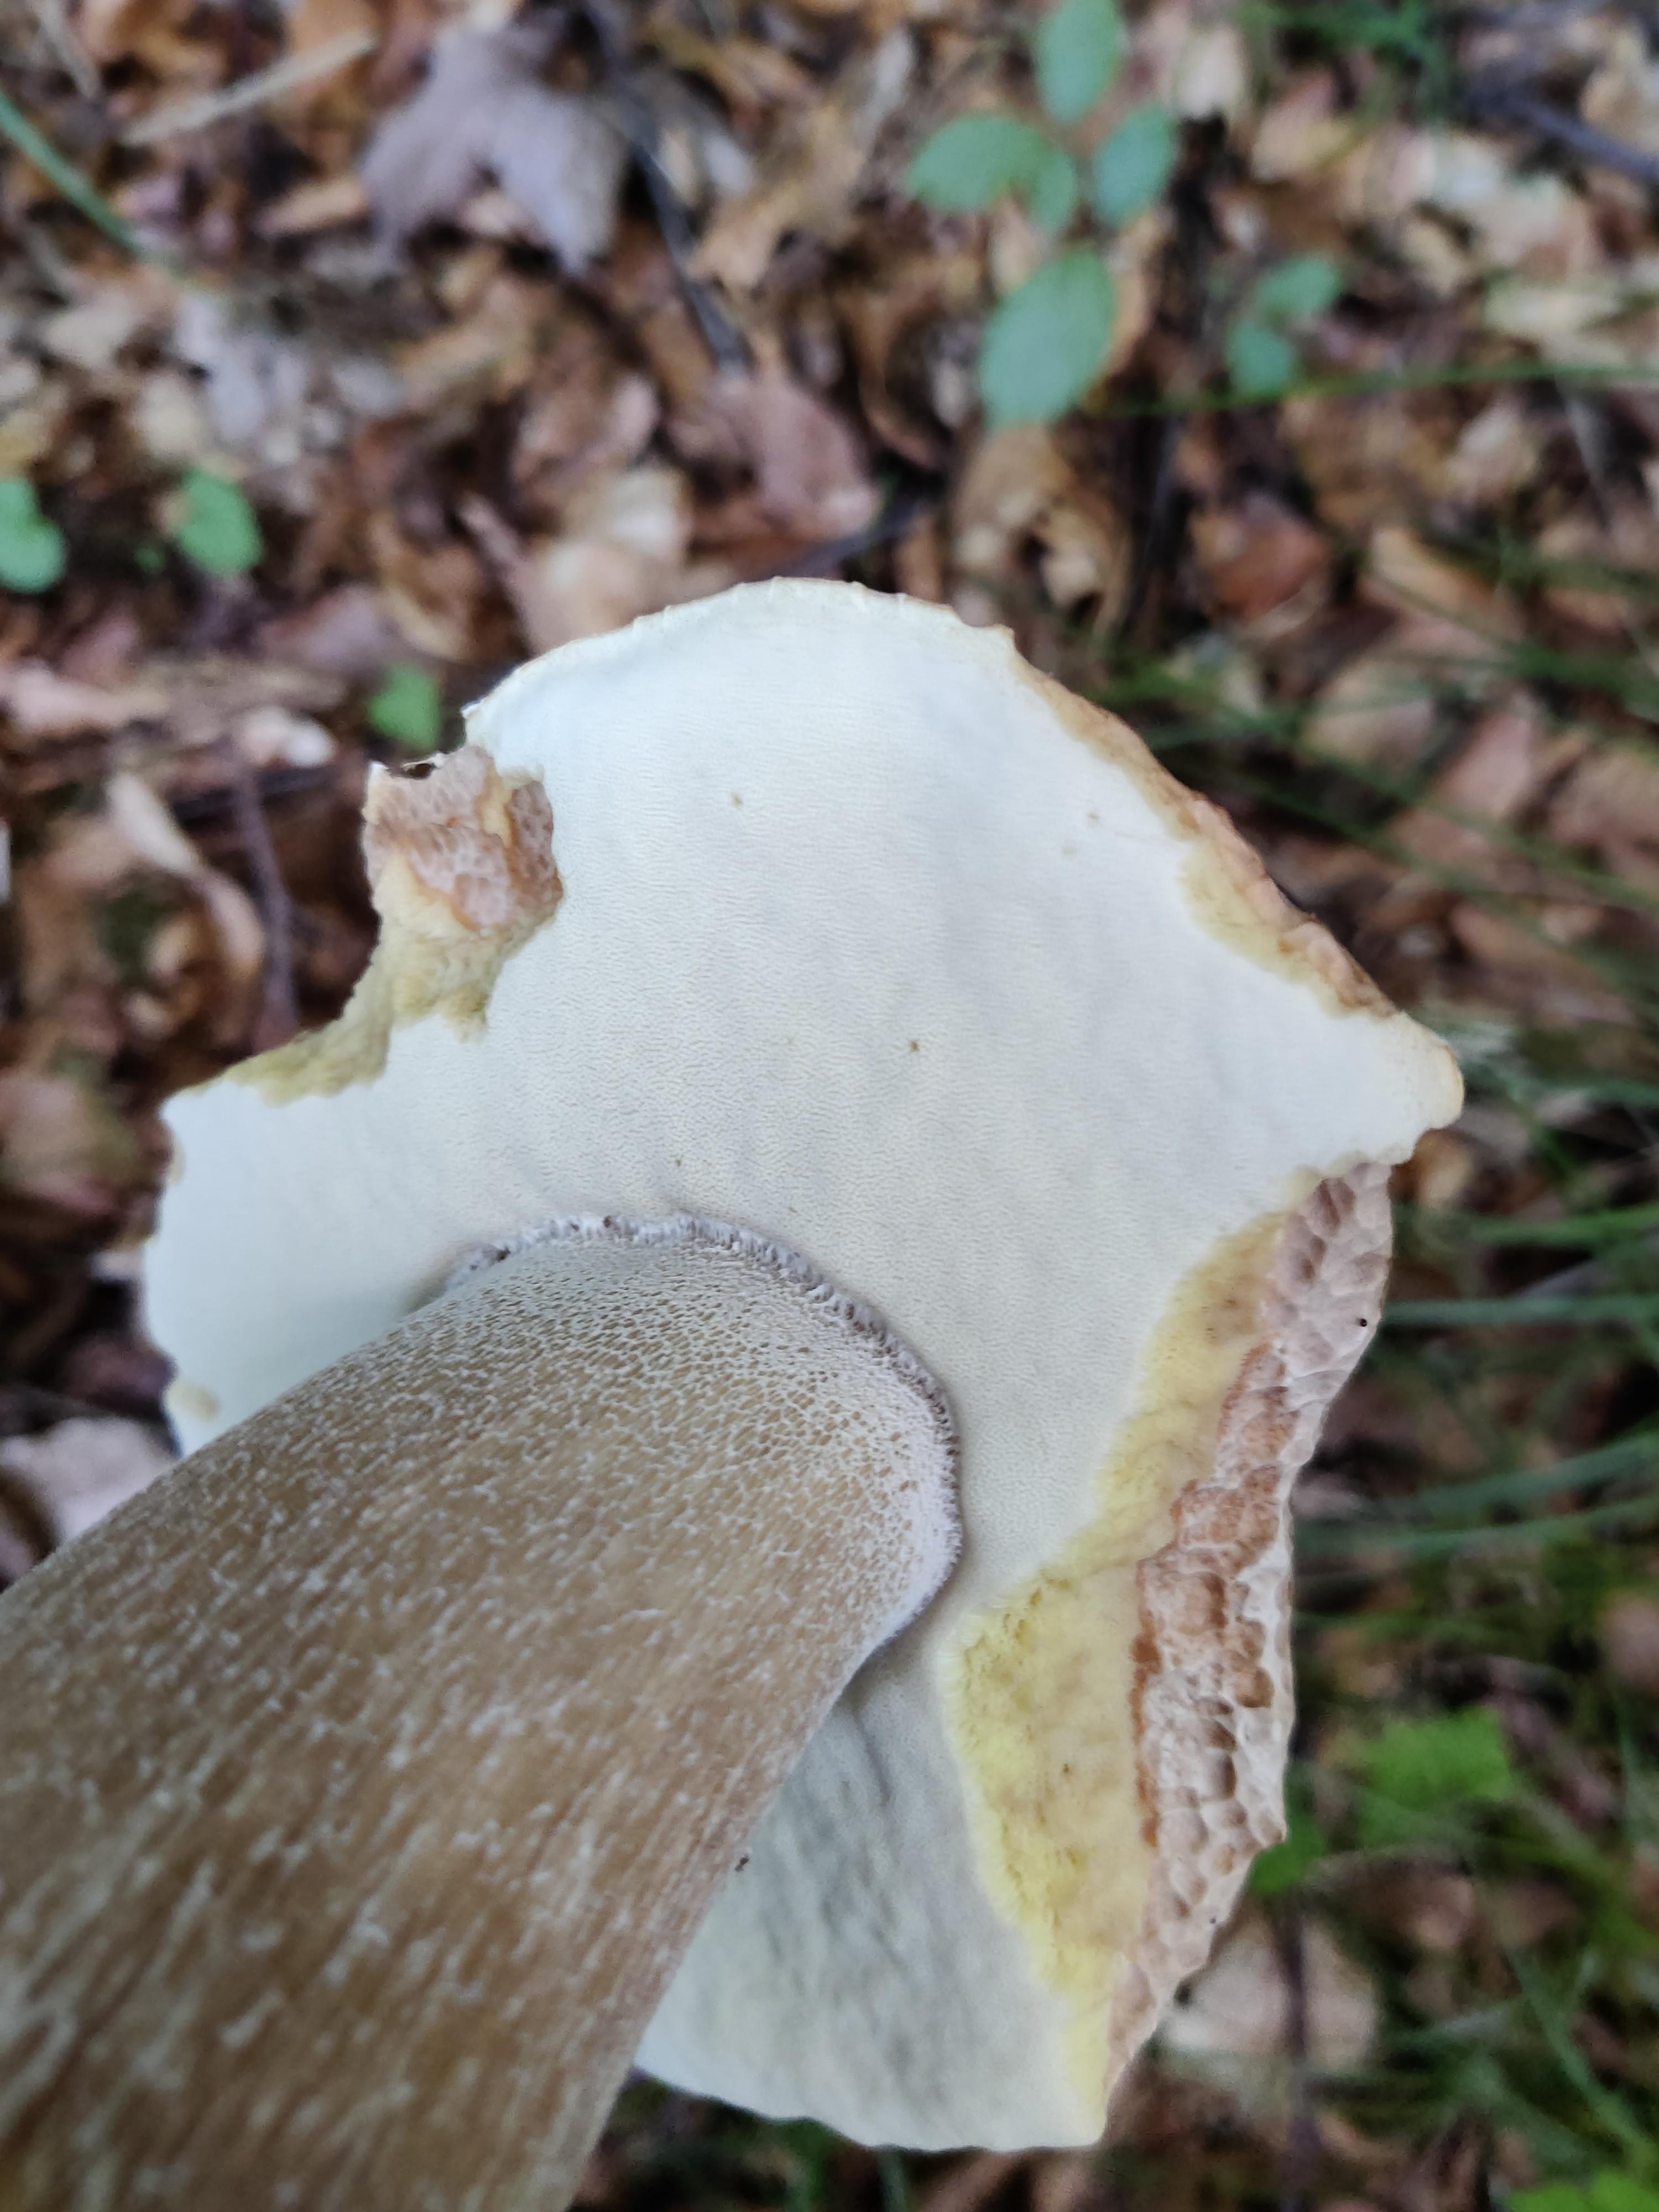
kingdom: Fungi
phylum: Basidiomycota
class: Agaricomycetes
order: Boletales
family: Boletaceae
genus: Boletus
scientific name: Boletus edulis
